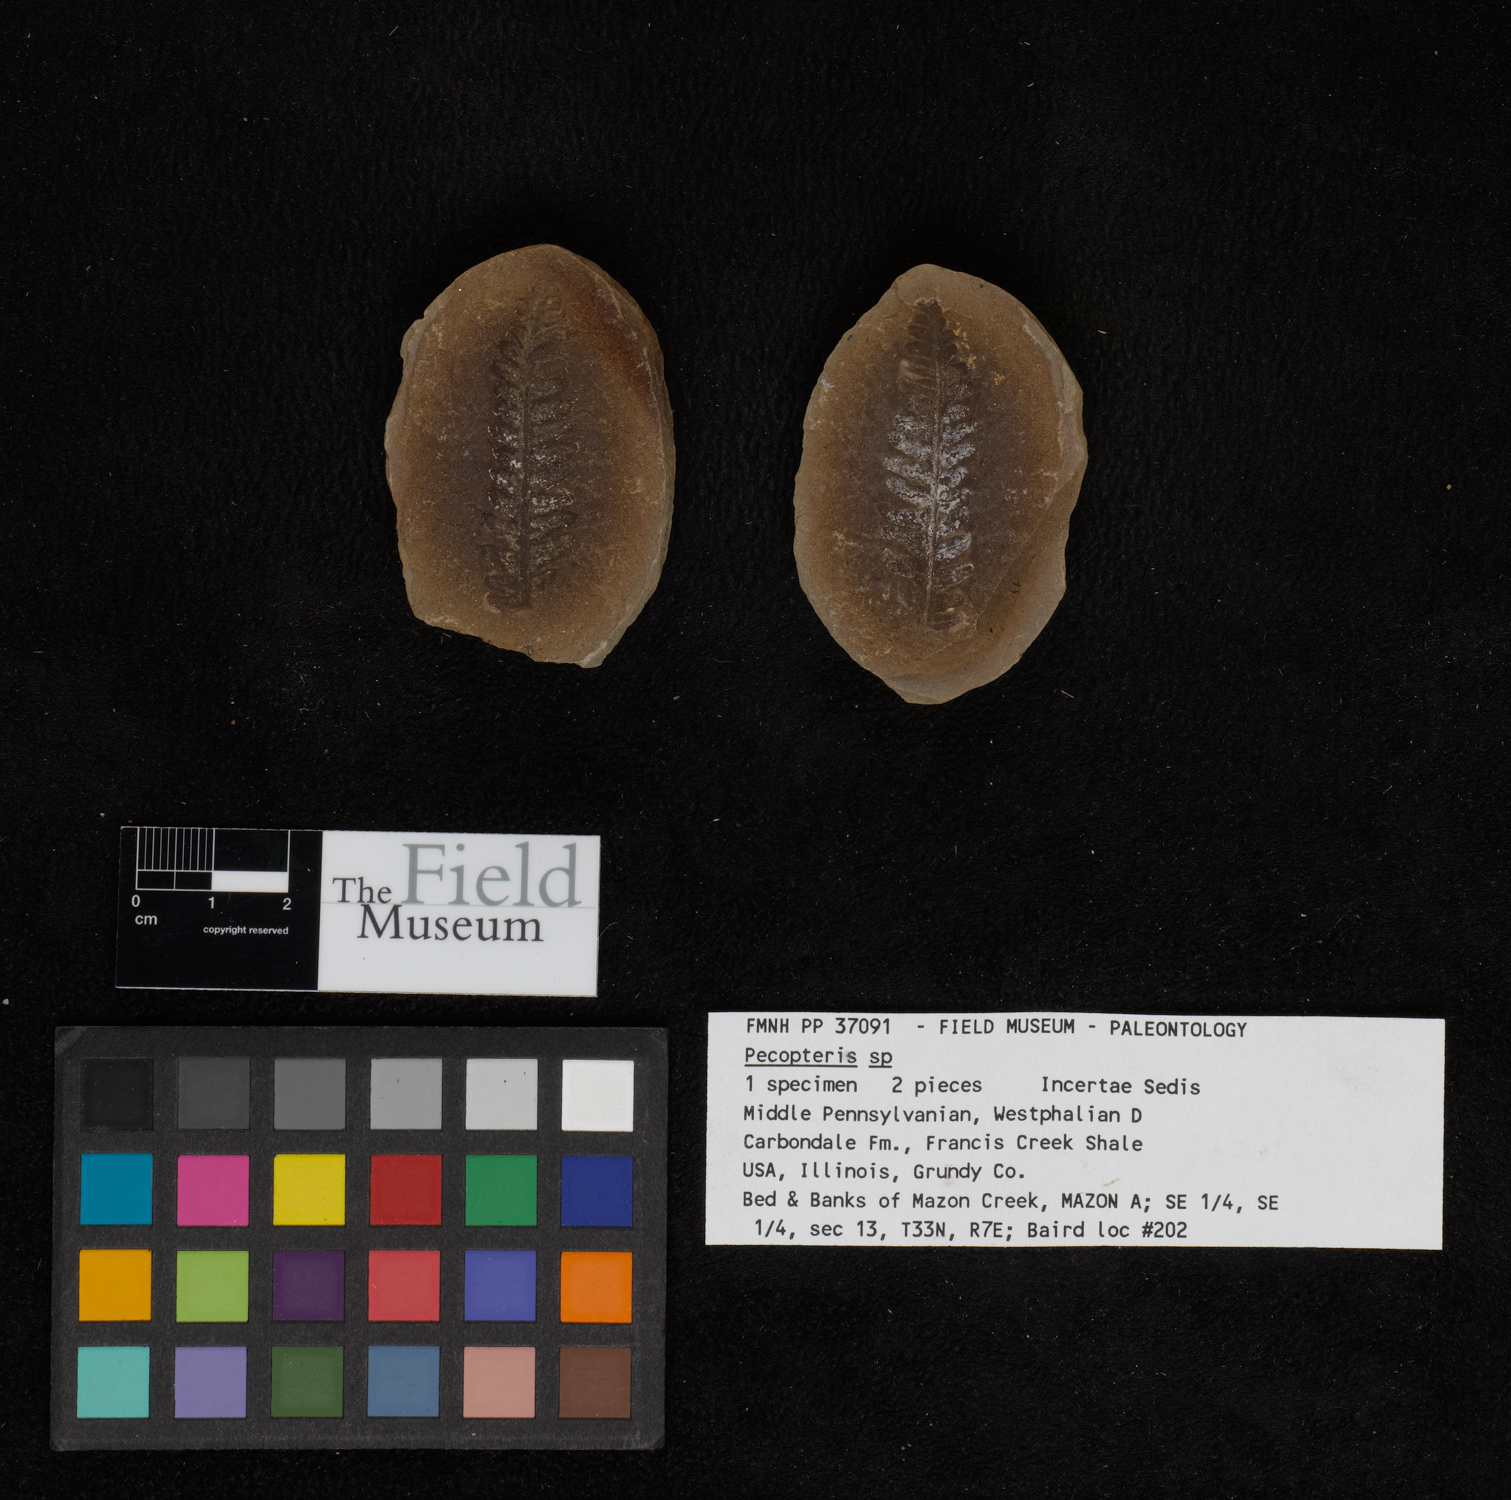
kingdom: Plantae
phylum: Tracheophyta
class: Polypodiopsida
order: Marattiales
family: Asterothecaceae
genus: Pecopteris
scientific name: Pecopteris
